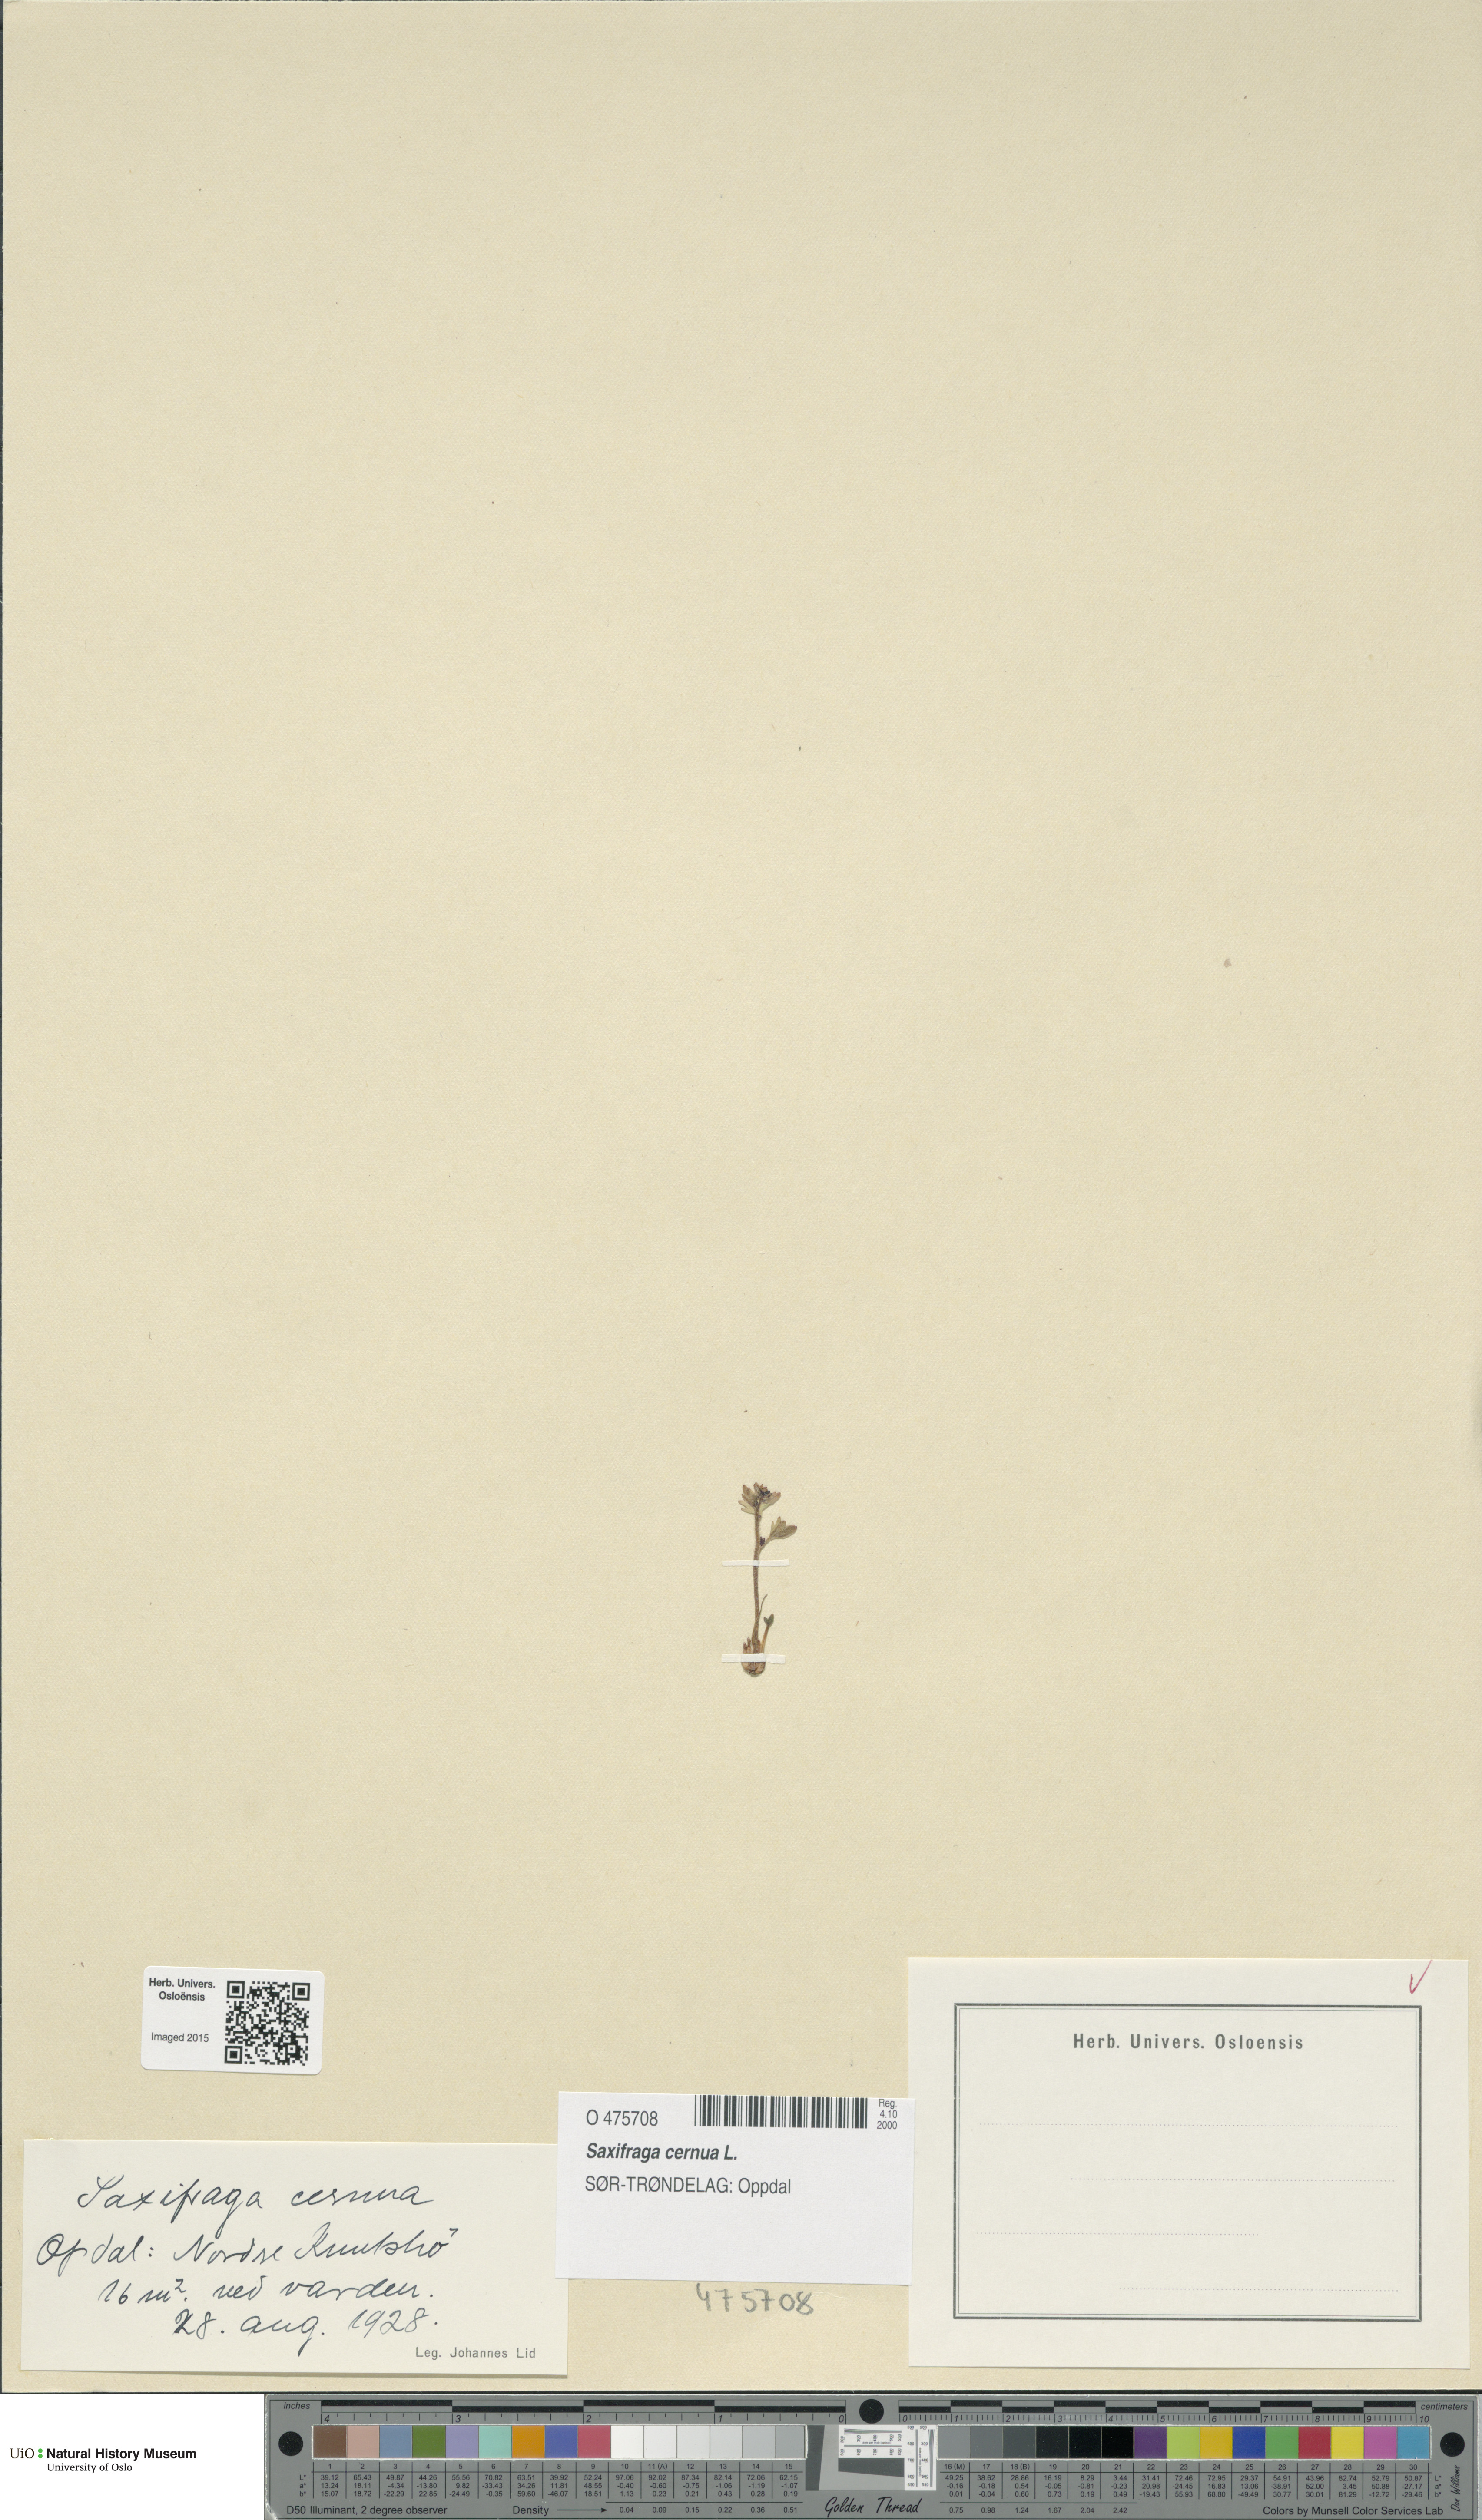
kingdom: Plantae
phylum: Tracheophyta
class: Magnoliopsida
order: Saxifragales
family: Saxifragaceae
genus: Saxifraga
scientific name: Saxifraga cernua
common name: Drooping saxifrage
